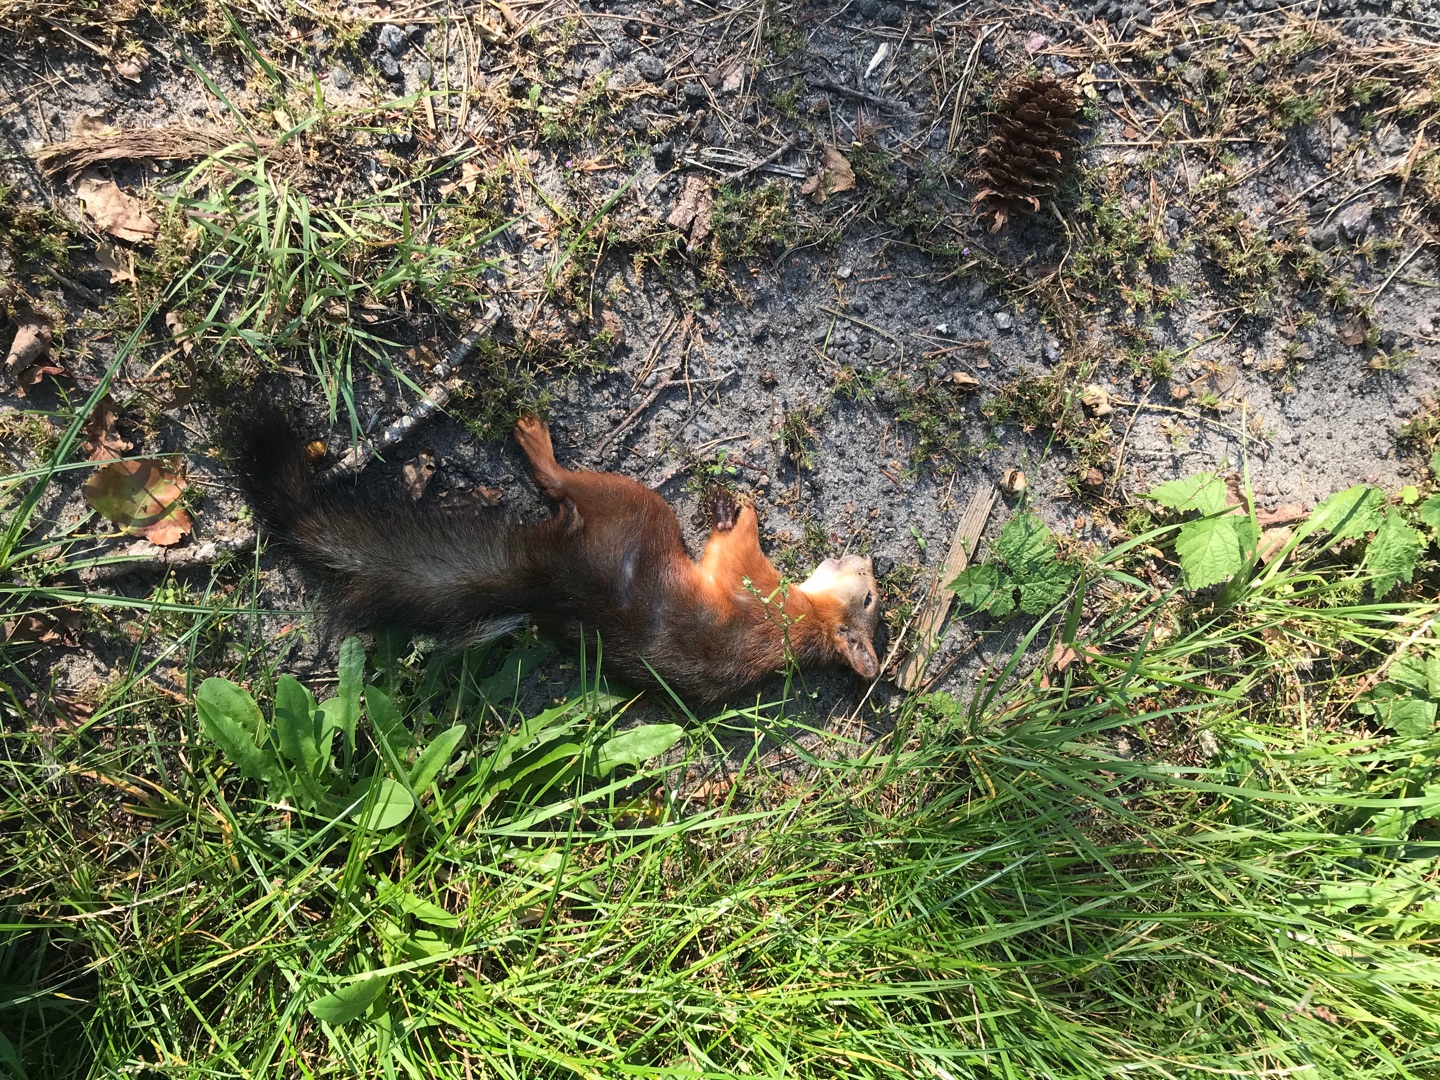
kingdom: Animalia
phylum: Chordata
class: Mammalia
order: Rodentia
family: Sciuridae
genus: Sciurus
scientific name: Sciurus vulgaris
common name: Egern
